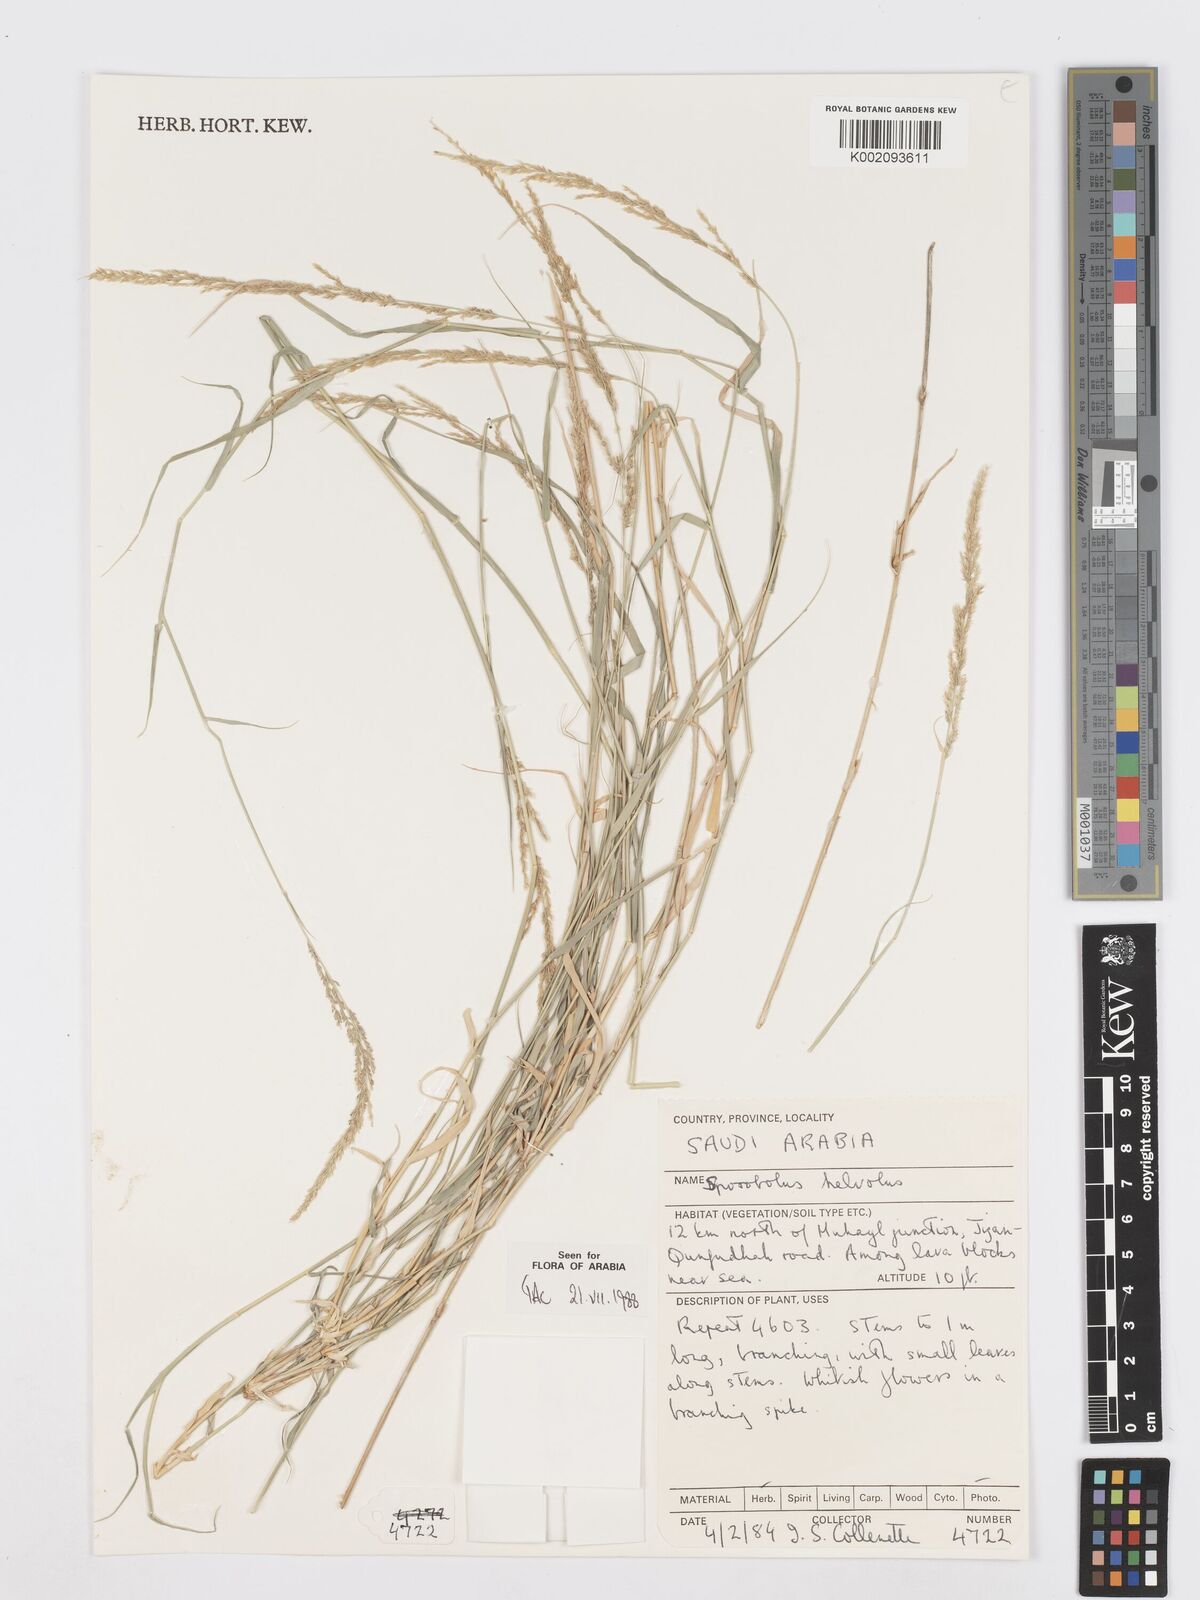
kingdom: Plantae
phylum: Tracheophyta
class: Liliopsida
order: Poales
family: Poaceae
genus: Sporobolus
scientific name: Sporobolus helvolus
